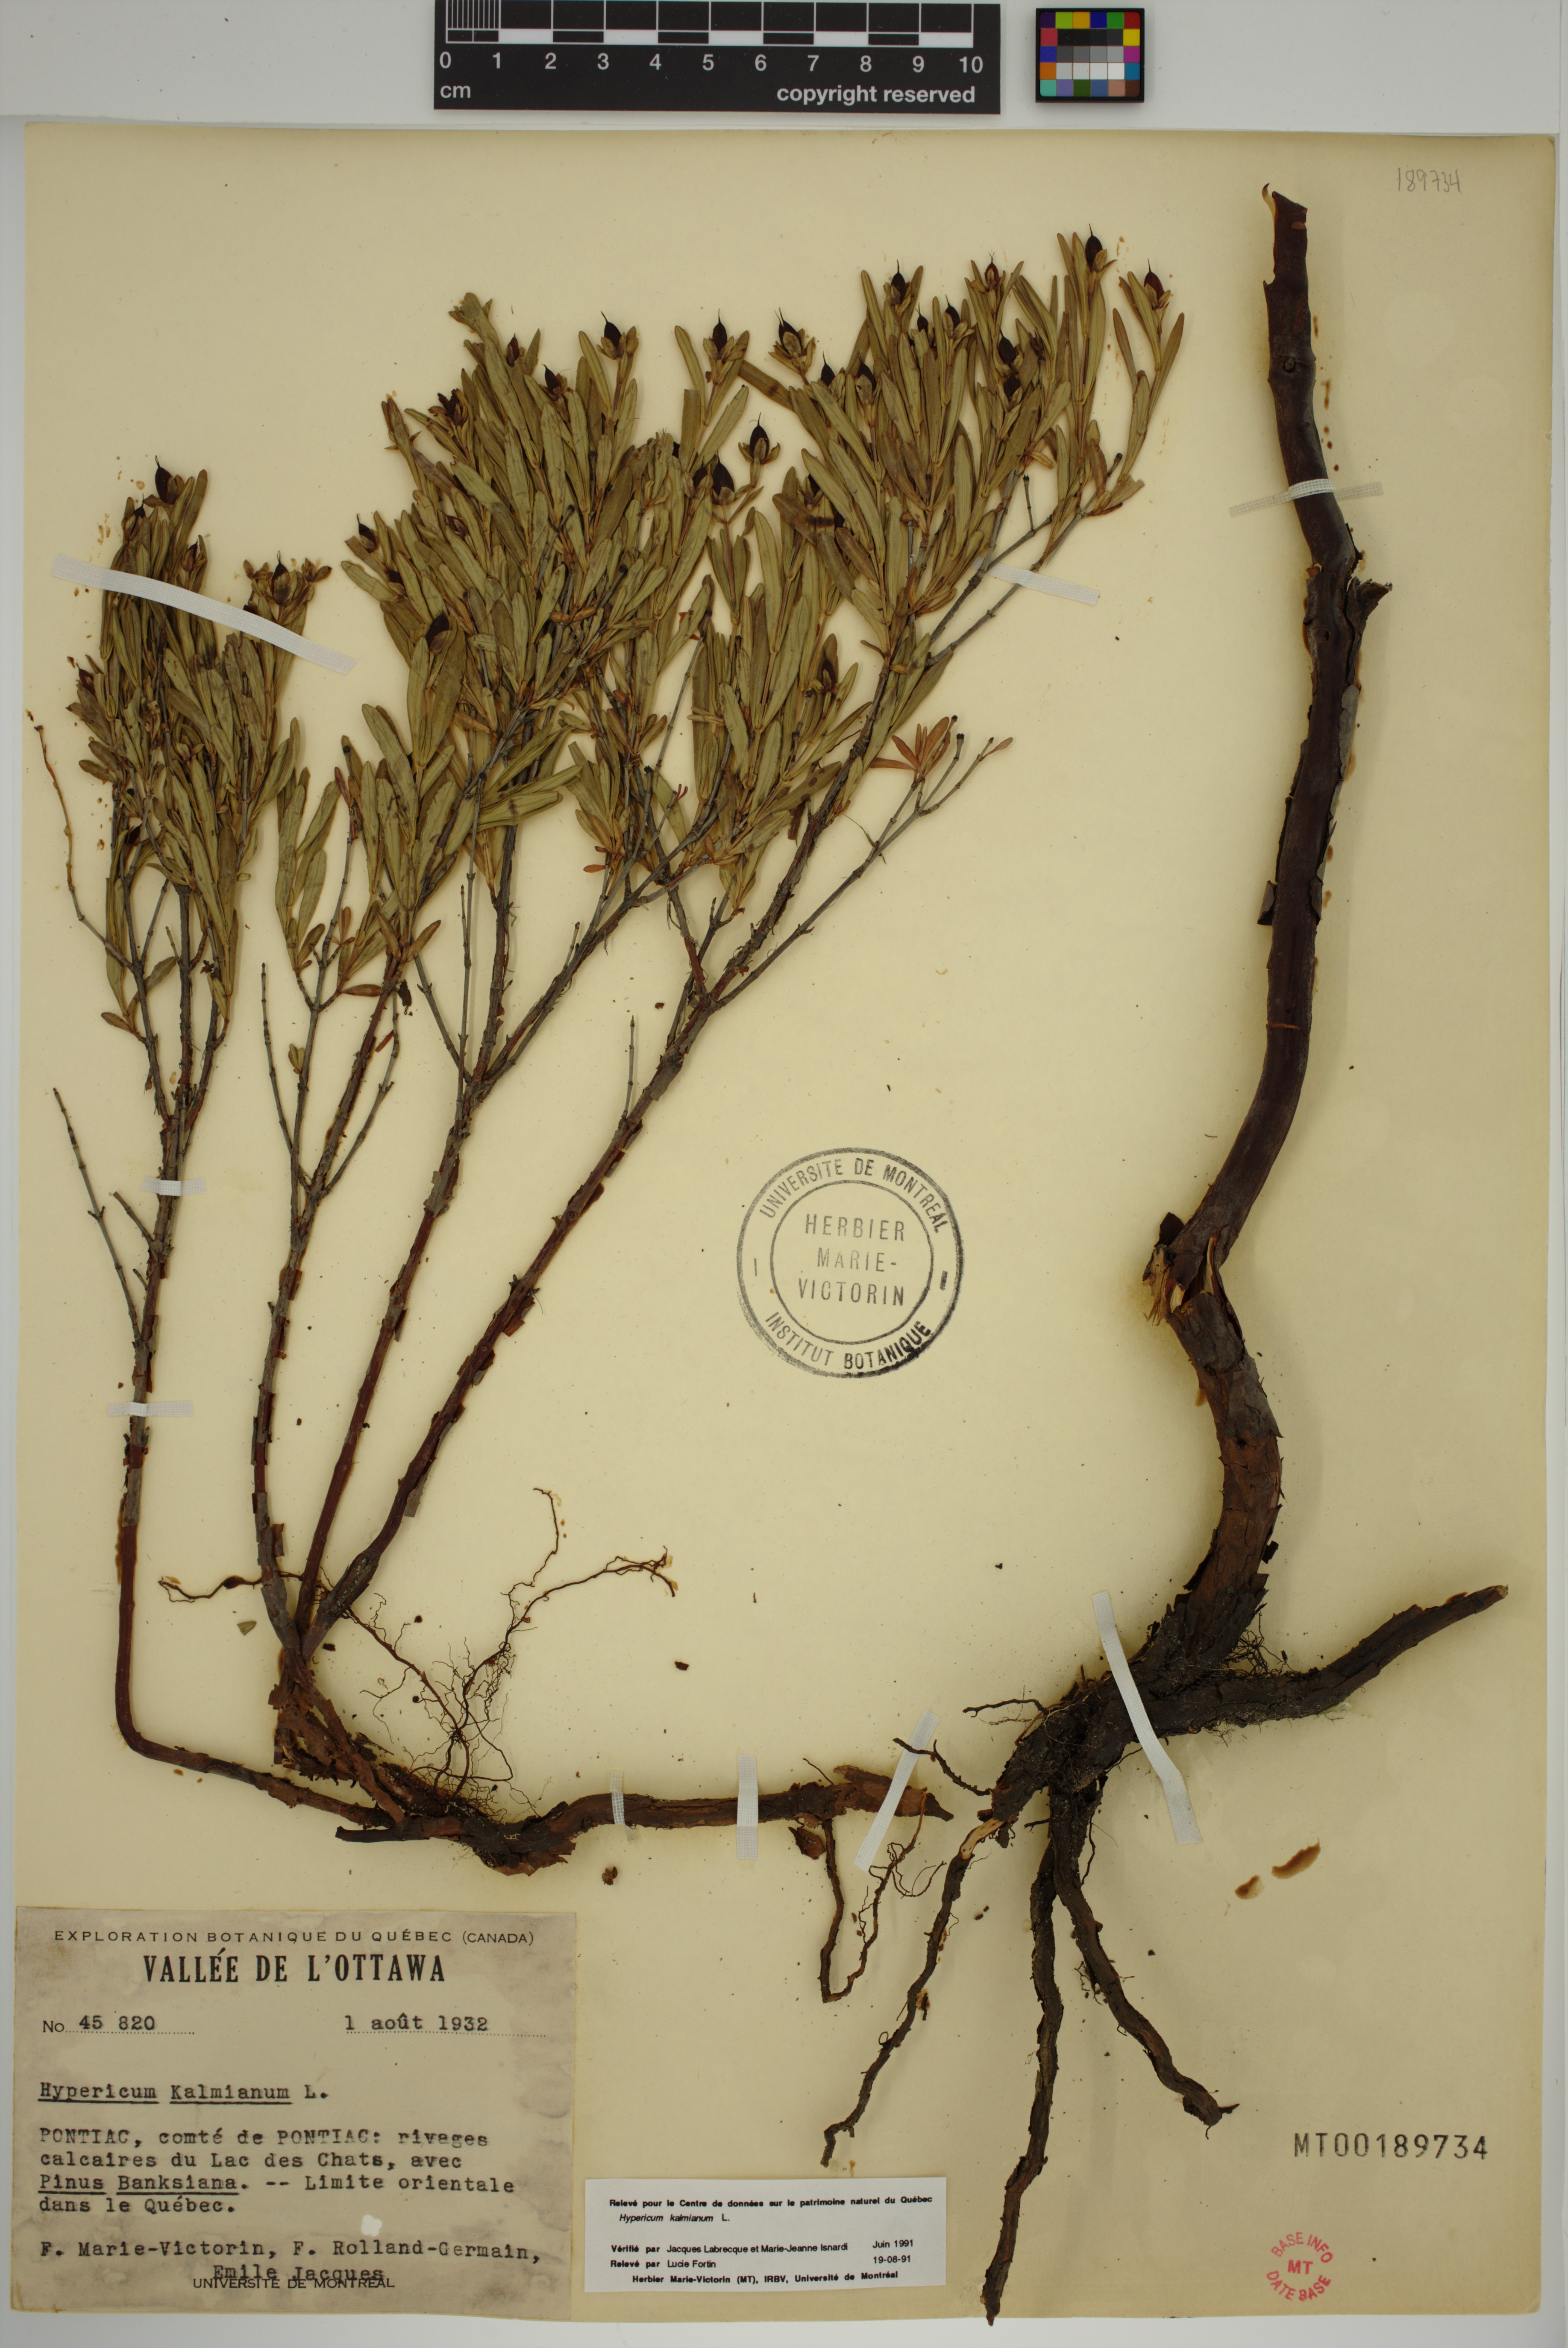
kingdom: Plantae
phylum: Tracheophyta
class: Magnoliopsida
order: Malpighiales
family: Hypericaceae
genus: Hypericum
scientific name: Hypericum kalmianum
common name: Kalm's st. john's-wort
